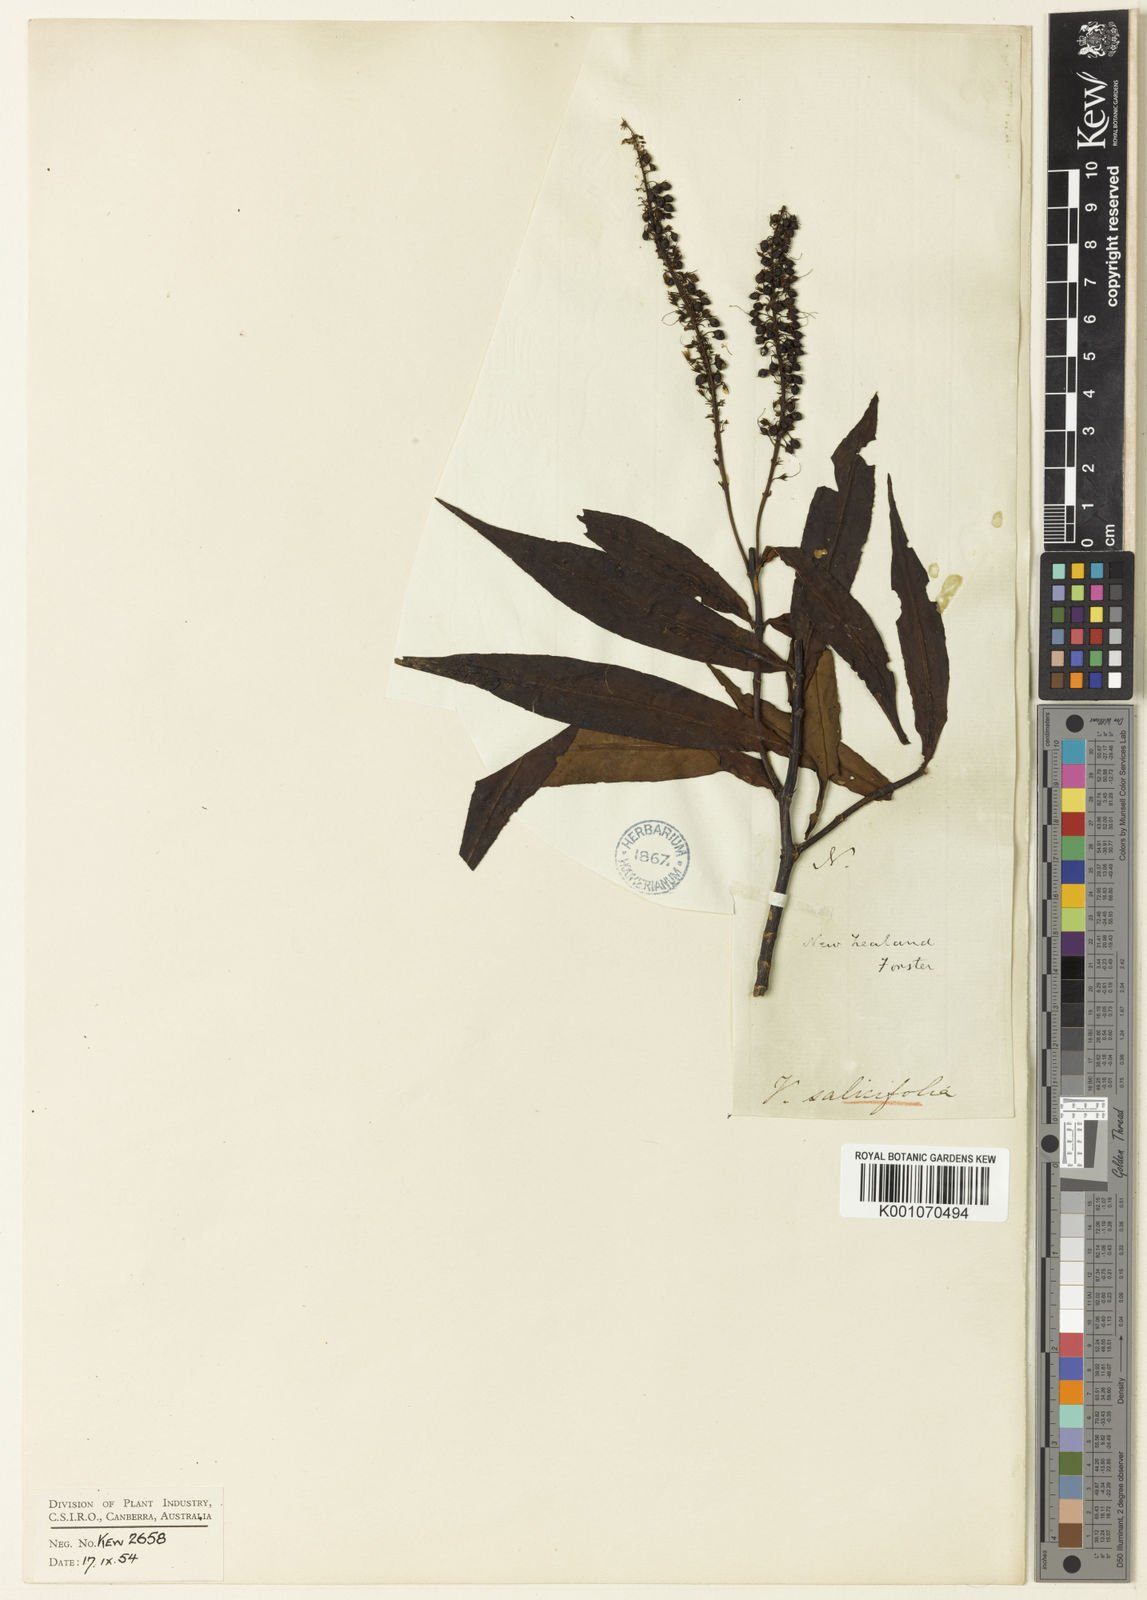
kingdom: Plantae
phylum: Tracheophyta
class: Magnoliopsida
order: Lamiales
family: Plantaginaceae
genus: Veronica
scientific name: Veronica salicifolia
